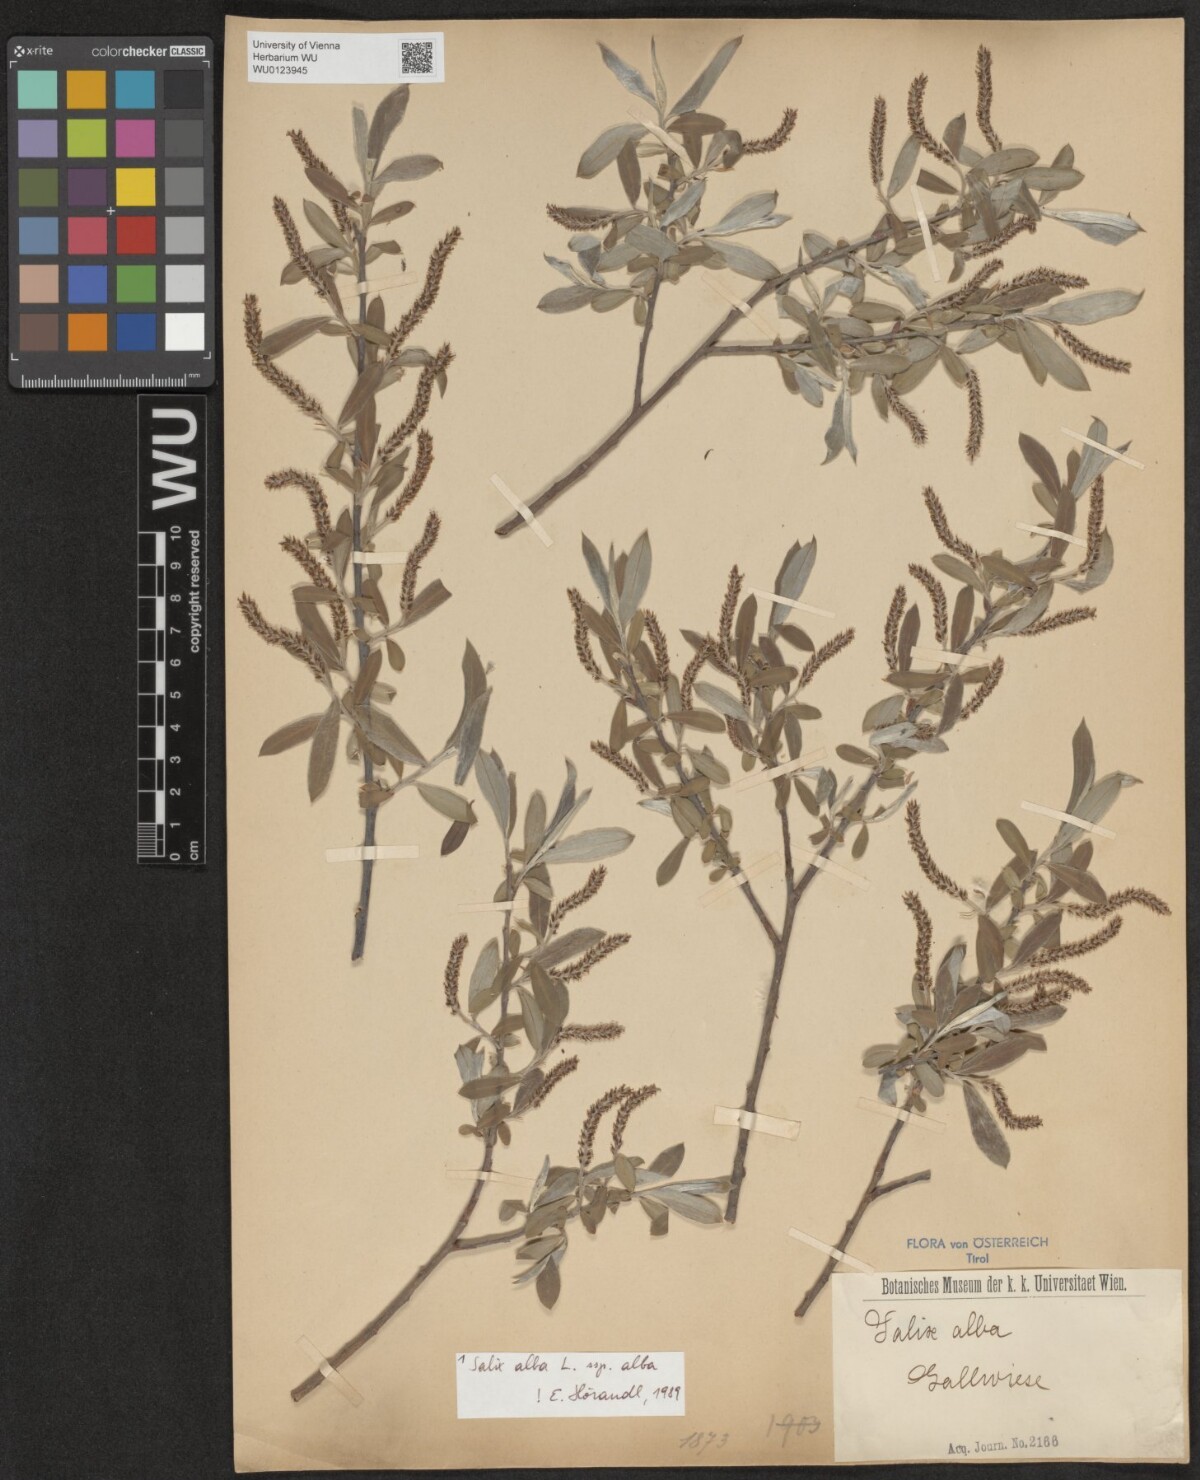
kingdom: Plantae
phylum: Tracheophyta
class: Magnoliopsida
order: Malpighiales
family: Salicaceae
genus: Salix
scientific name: Salix alba
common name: White willow
